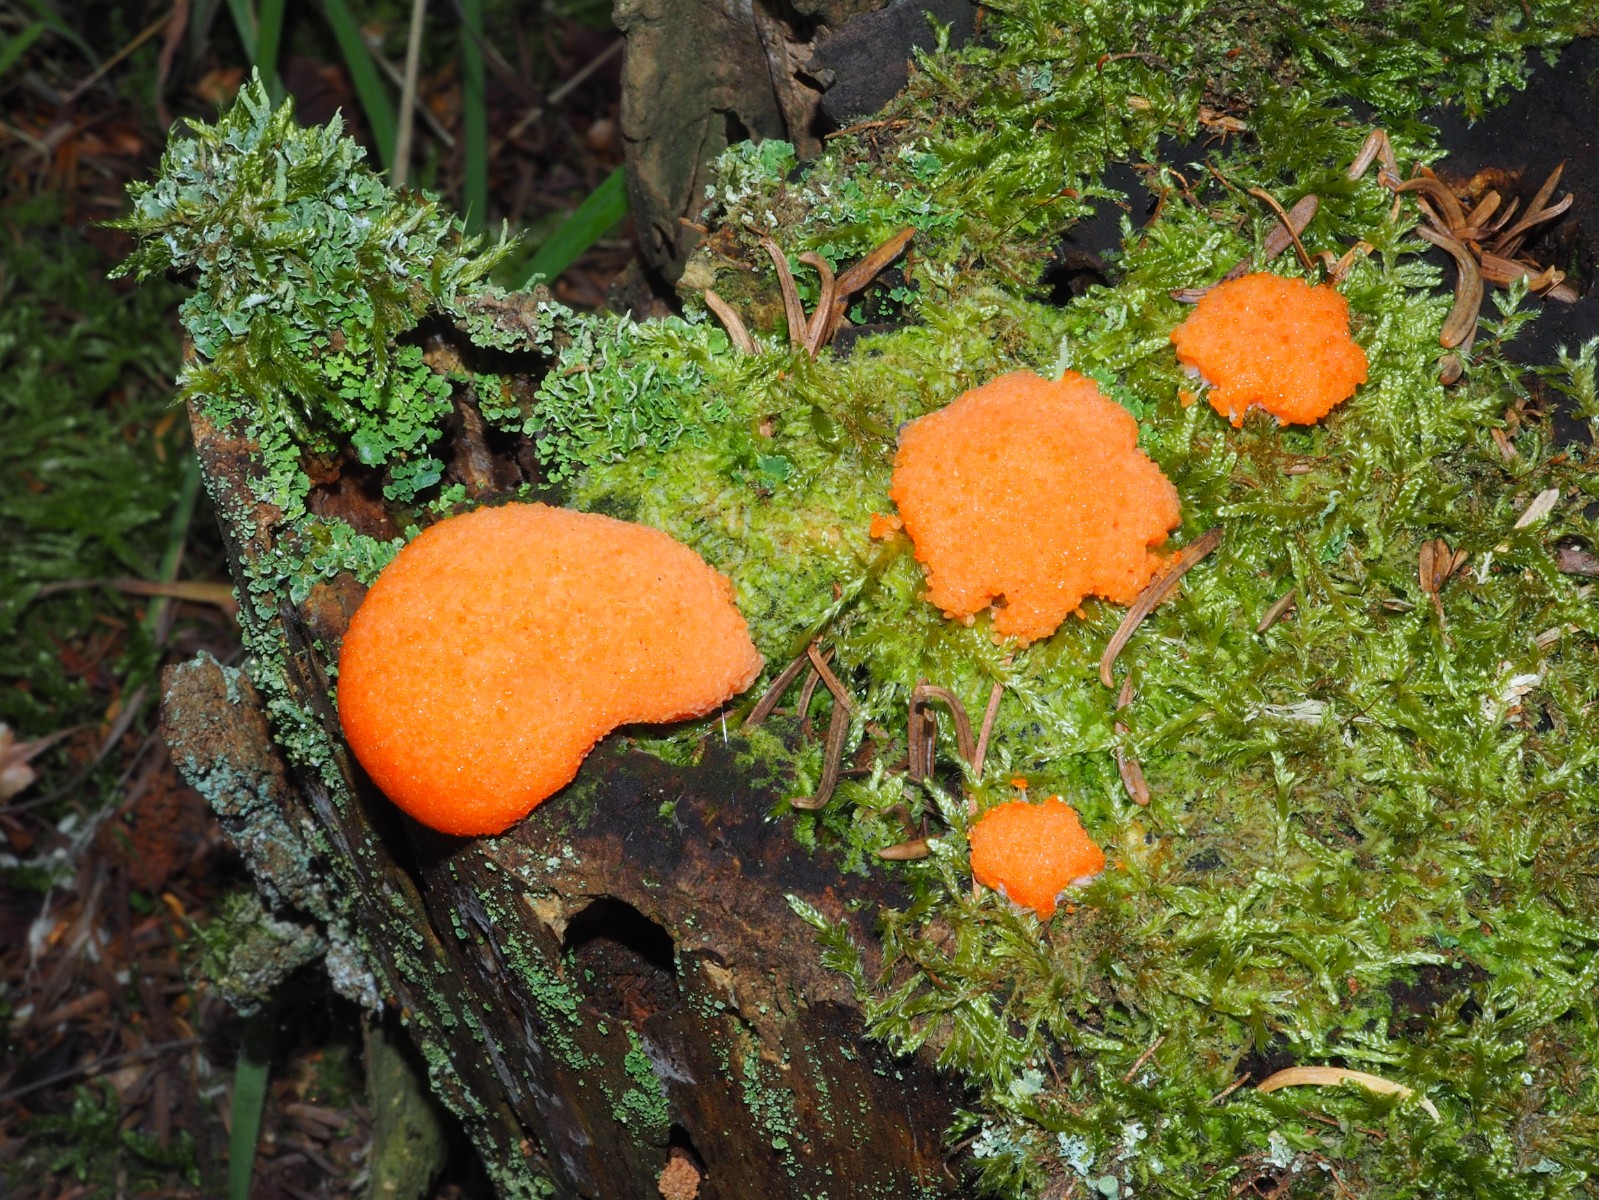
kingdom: Protozoa
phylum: Mycetozoa
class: Myxomycetes
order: Cribrariales
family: Tubiferaceae
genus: Tubifera
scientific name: Tubifera ferruginosa
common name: kanel-støvrør
